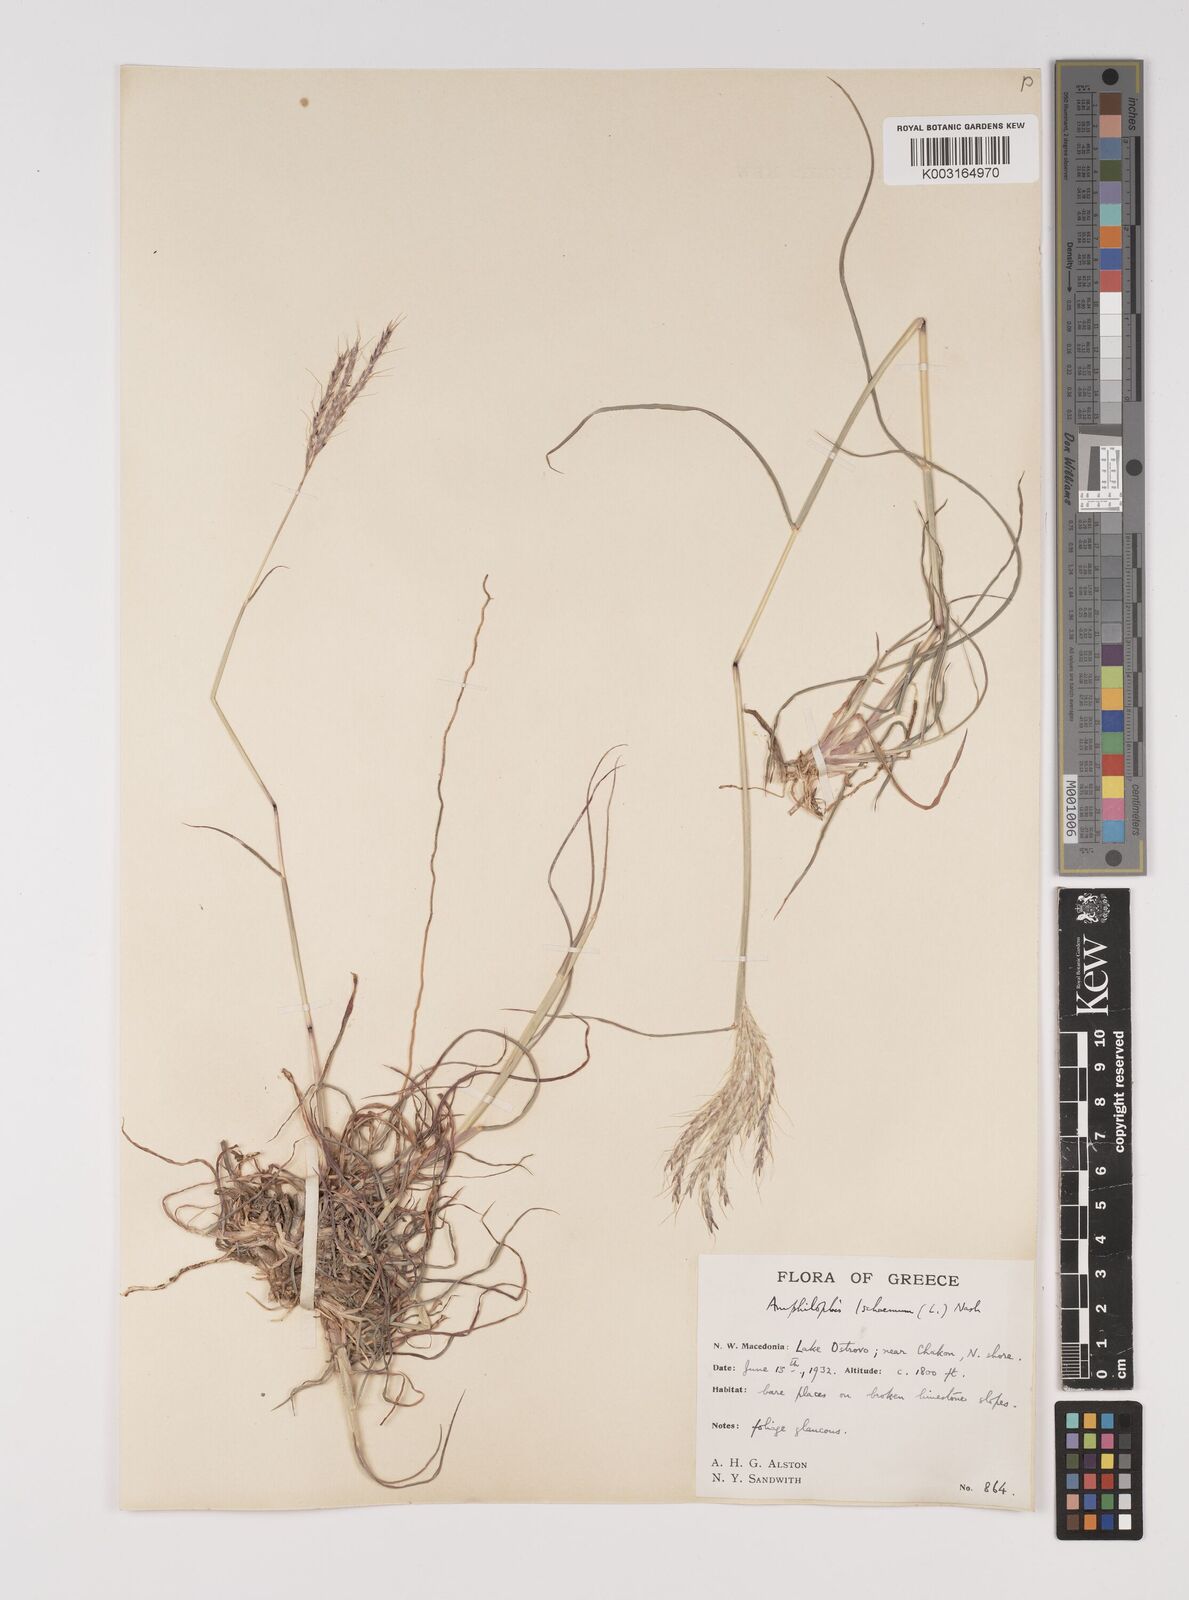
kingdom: Plantae
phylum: Tracheophyta
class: Liliopsida
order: Poales
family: Poaceae
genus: Bothriochloa
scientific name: Bothriochloa ischaemum
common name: Yellow bluestem
